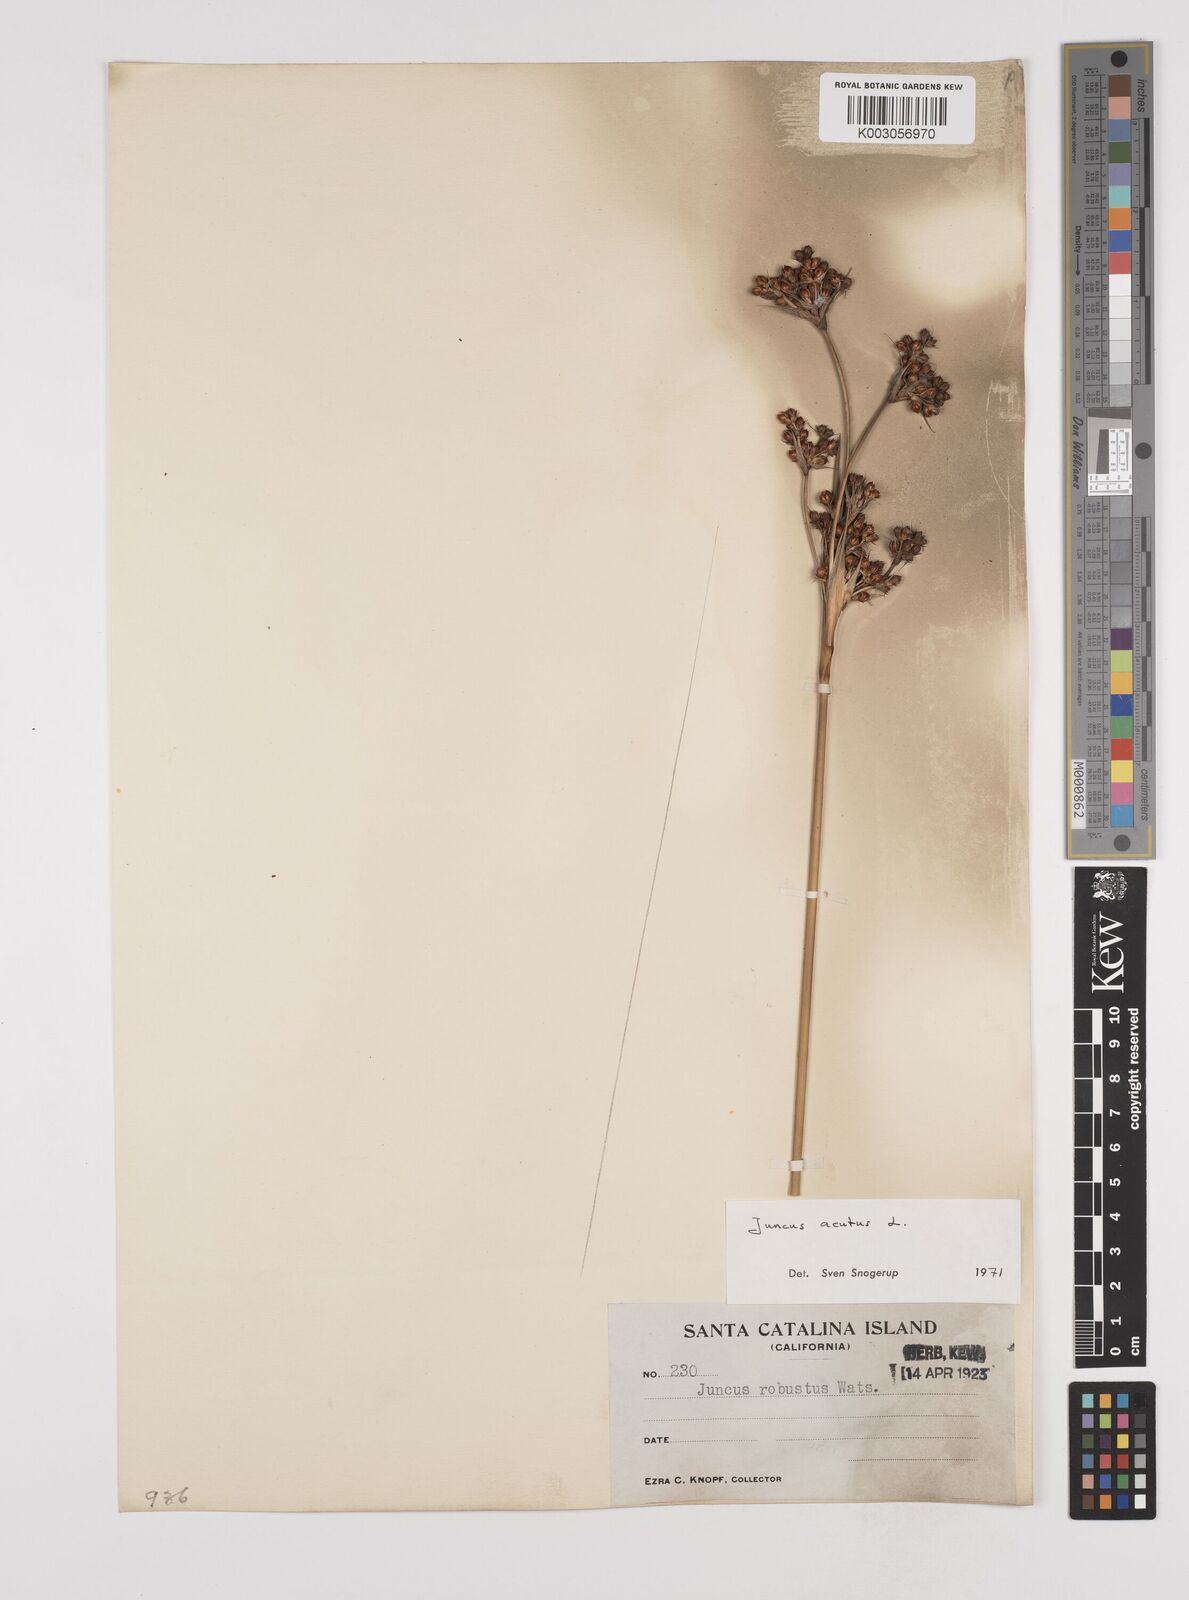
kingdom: Plantae
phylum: Tracheophyta
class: Liliopsida
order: Poales
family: Juncaceae
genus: Juncus
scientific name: Juncus acutus
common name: Sharp rush
